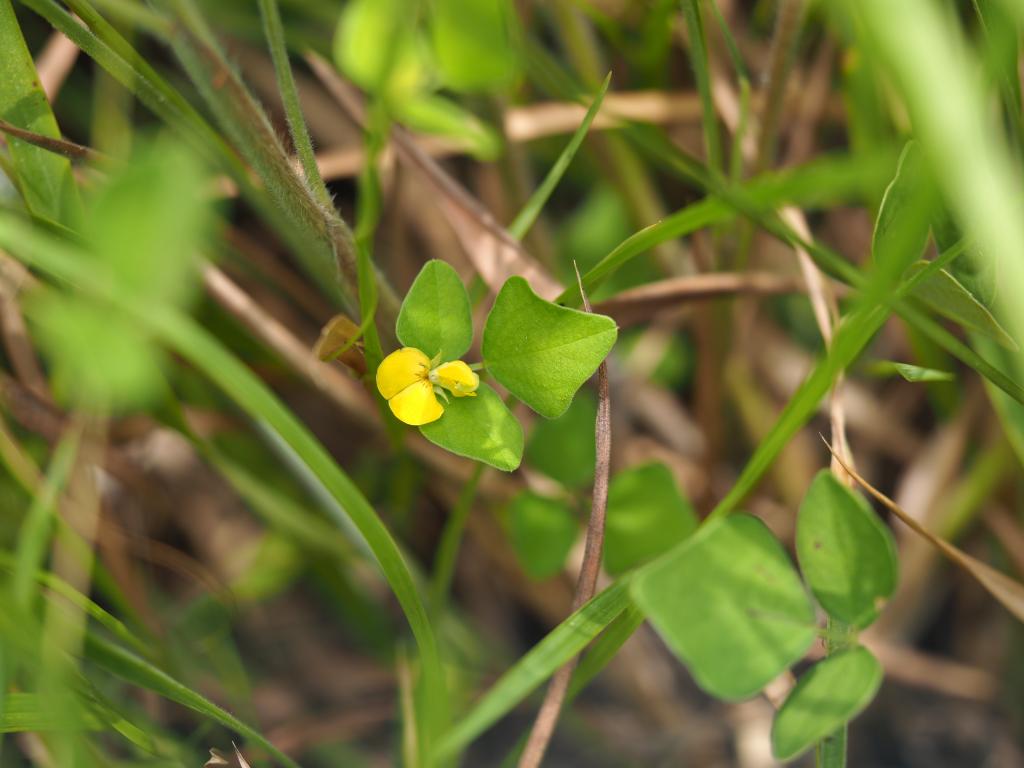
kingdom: Plantae
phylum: Tracheophyta
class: Magnoliopsida
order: Fabales
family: Fabaceae
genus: Dunbaria
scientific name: Dunbaria punctata
